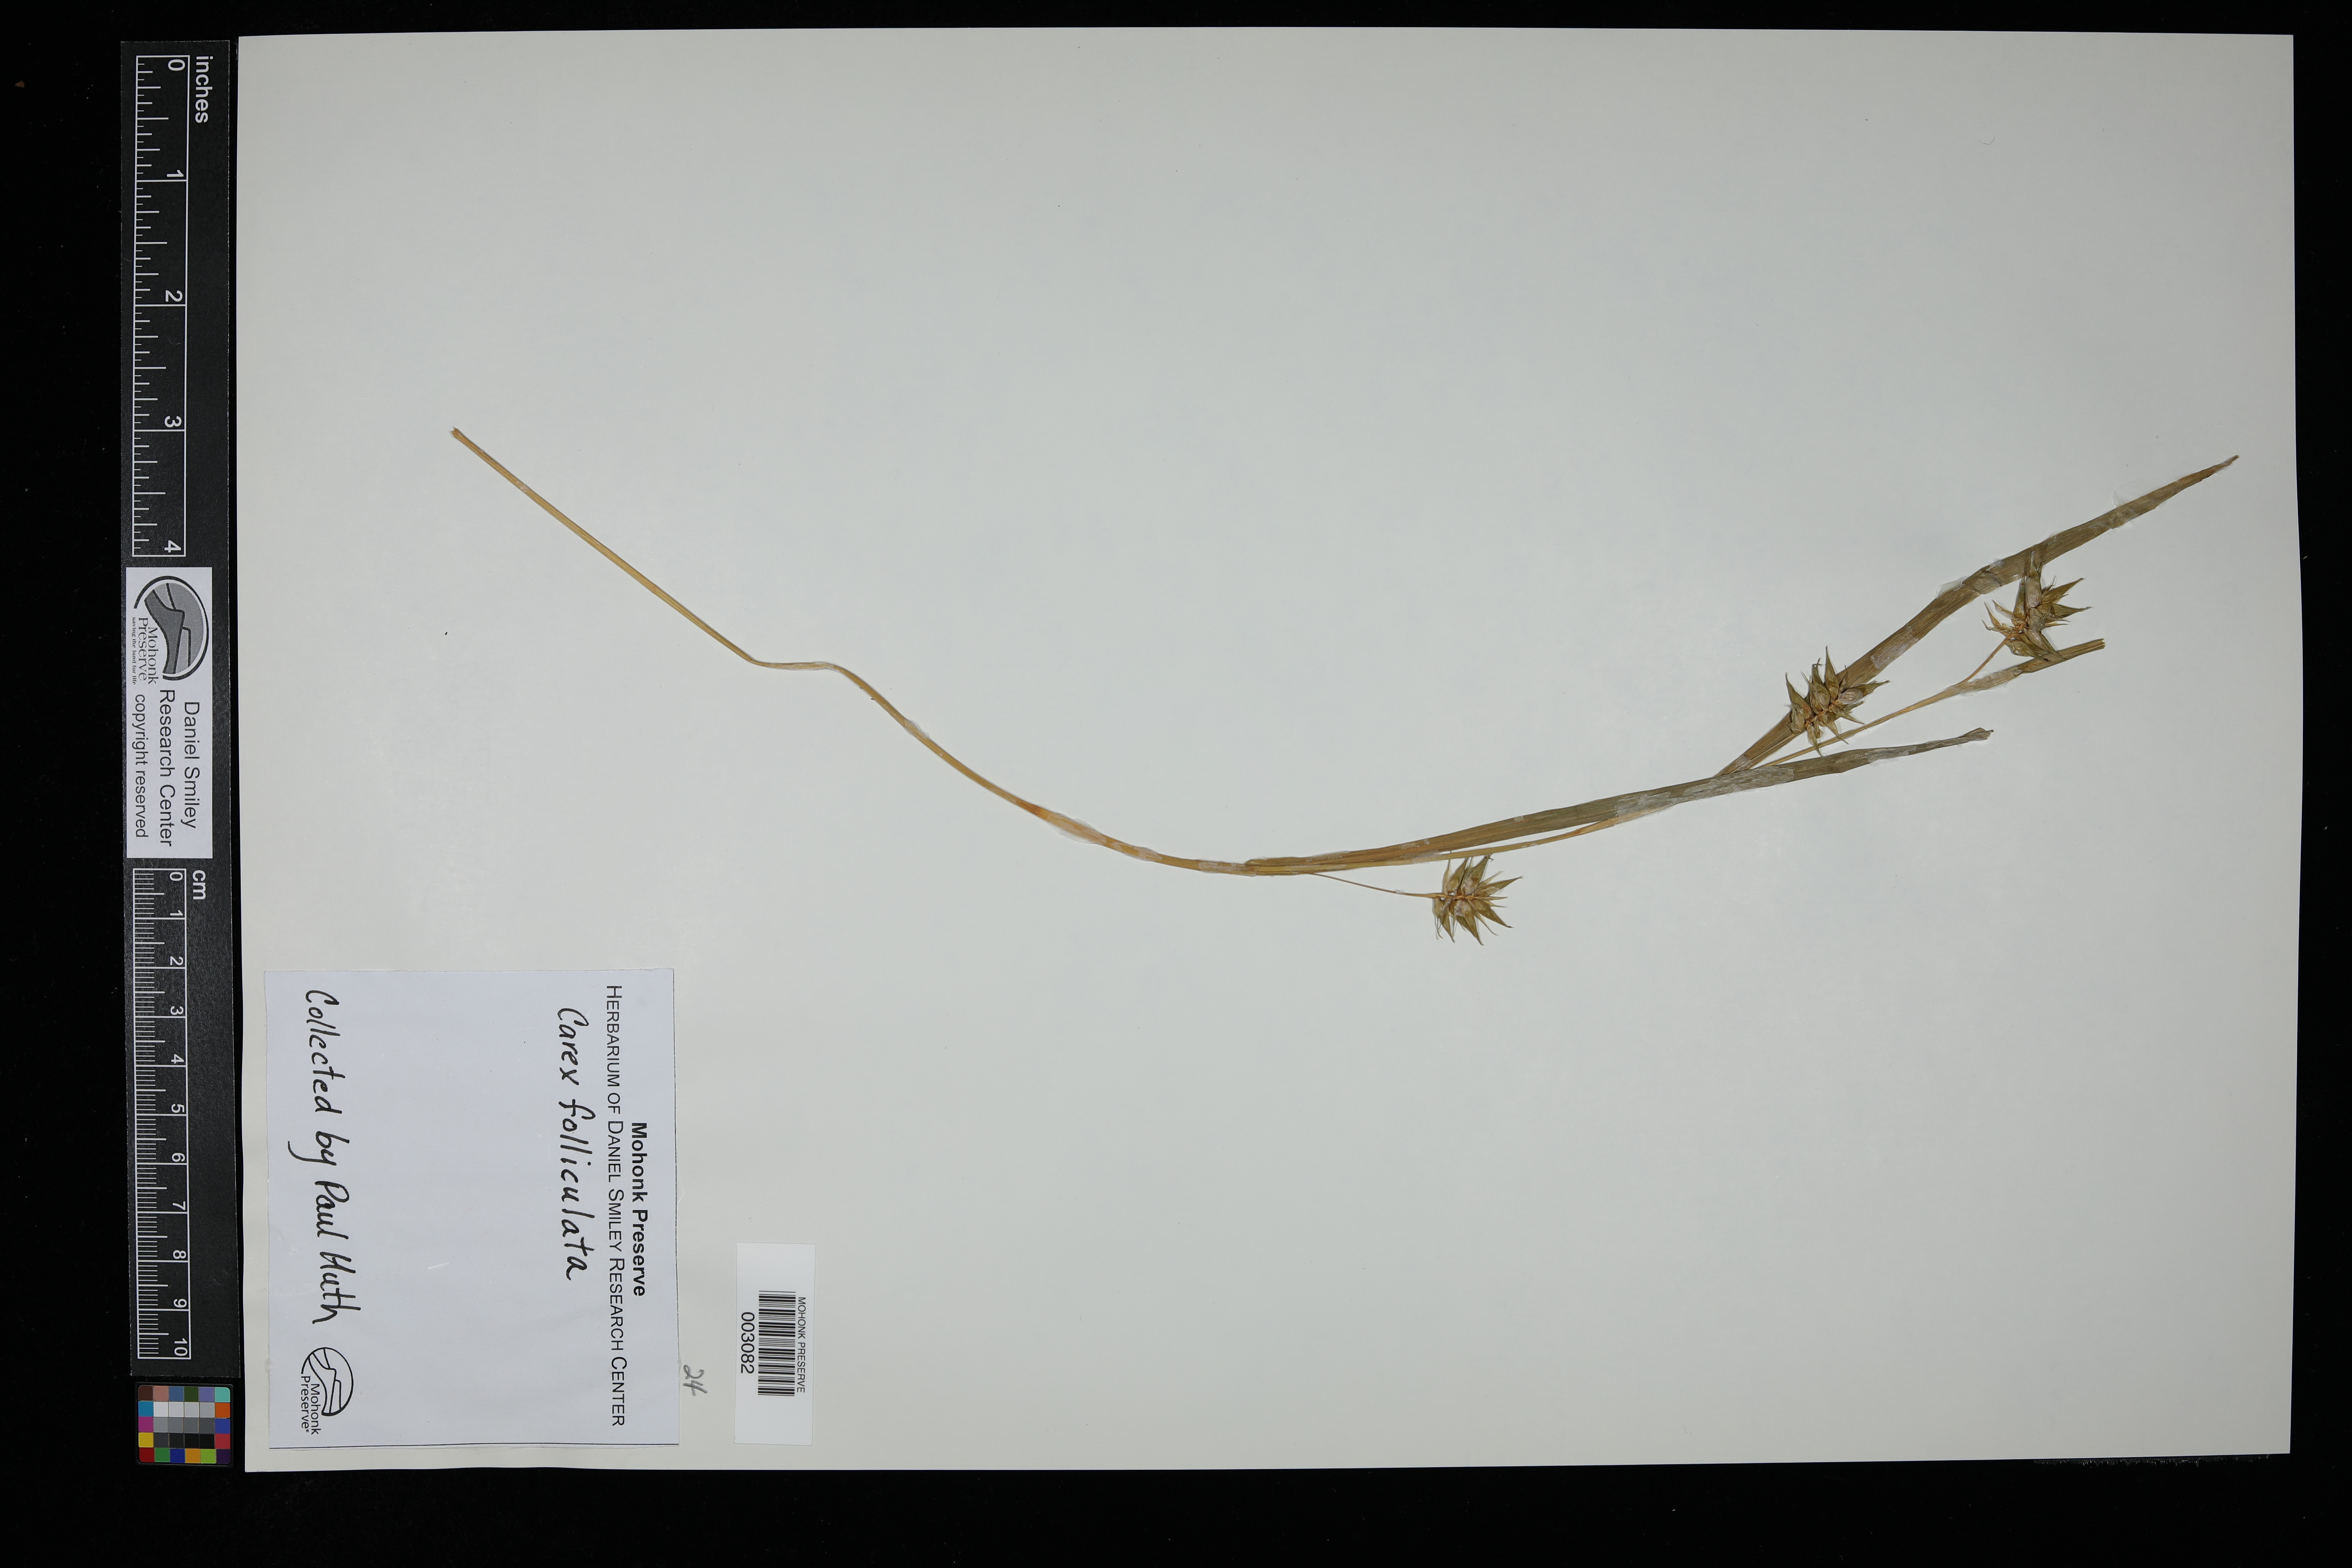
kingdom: Plantae
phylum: Tracheophyta
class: Liliopsida
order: Poales
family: Cyperaceae
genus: Carex
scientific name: Carex folliculata
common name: Northern long sedge
